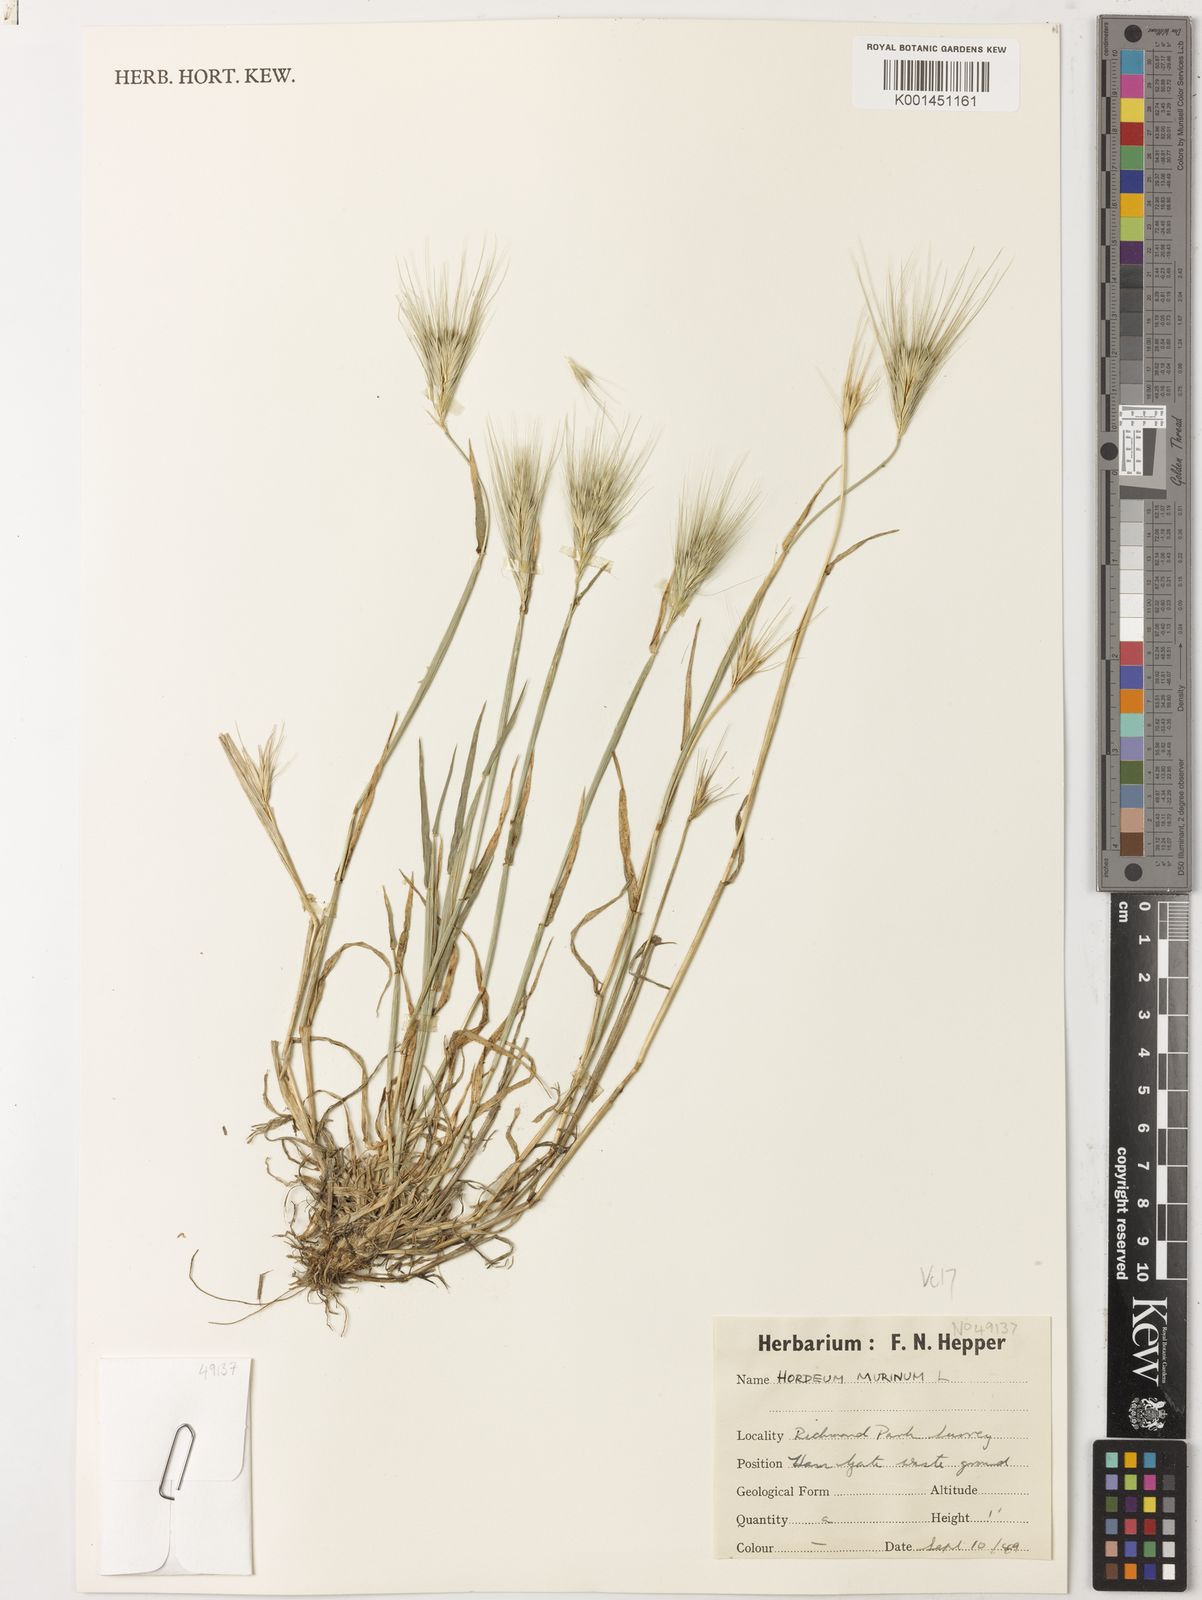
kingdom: Plantae
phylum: Tracheophyta
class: Liliopsida
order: Poales
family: Poaceae
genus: Hordeum
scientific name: Hordeum murinum
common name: Wall barley
